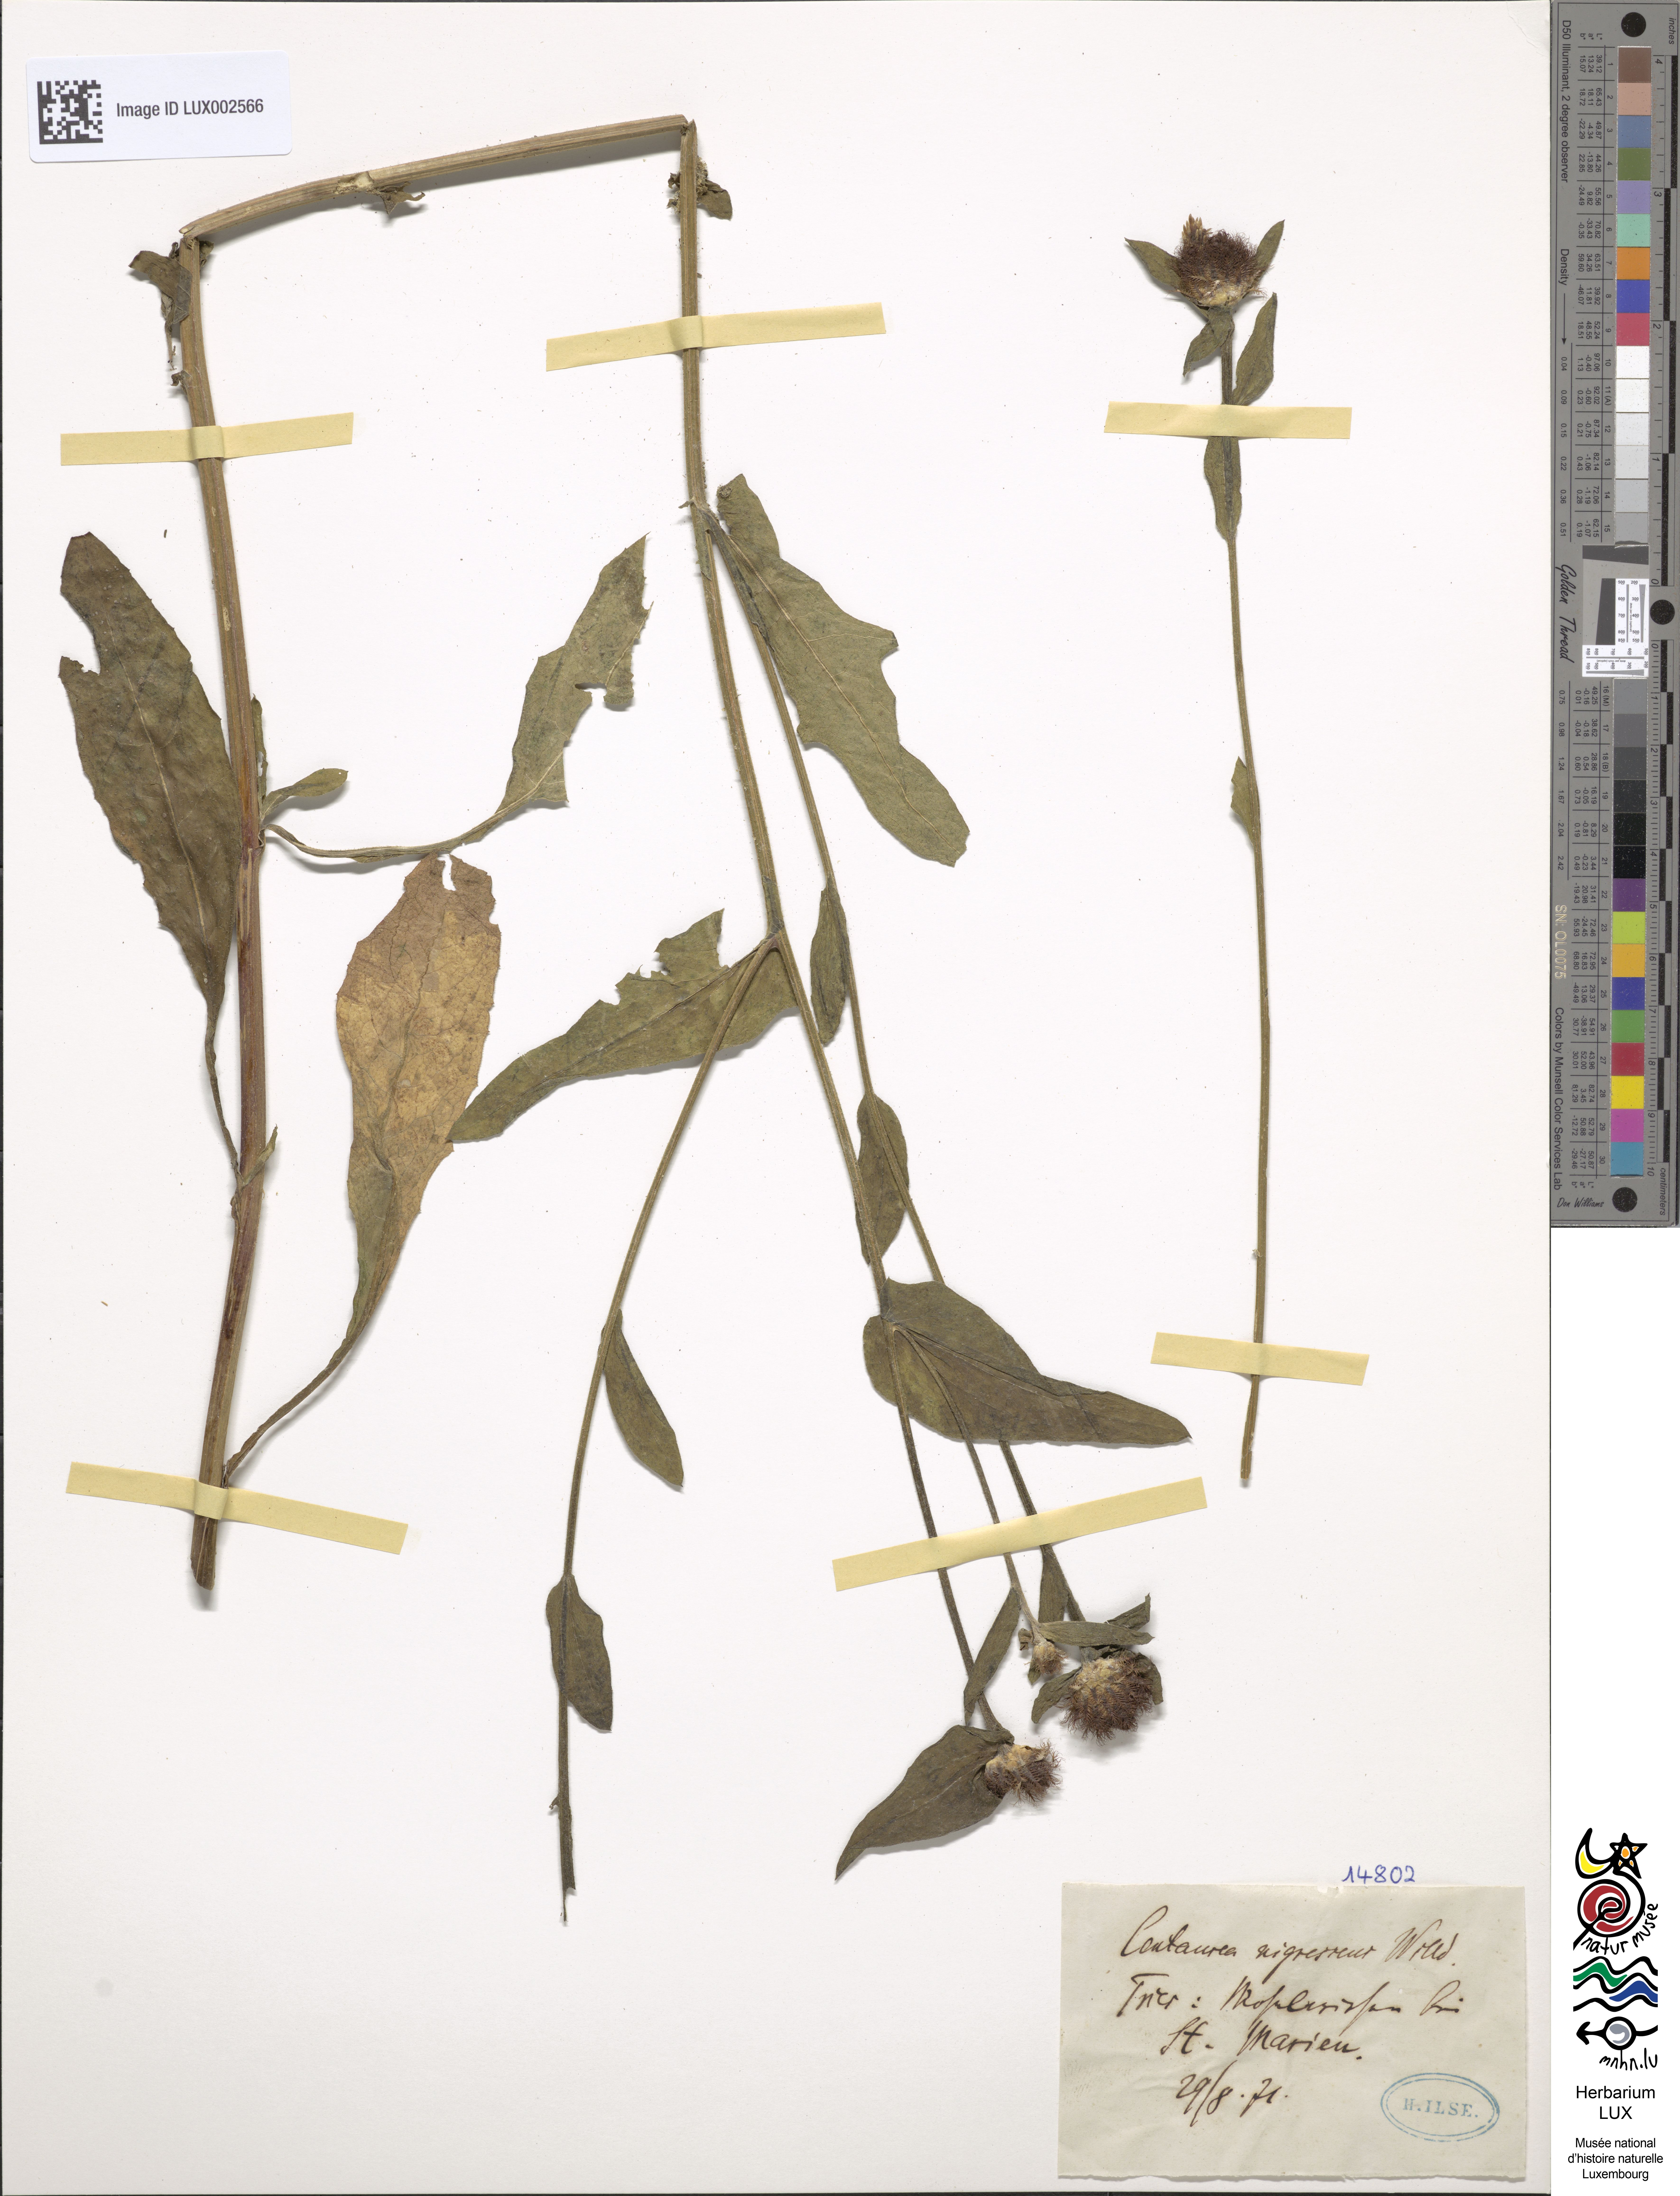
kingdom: Plantae
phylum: Tracheophyta
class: Magnoliopsida
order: Asterales
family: Asteraceae
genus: Centaurea
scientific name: Centaurea nigra
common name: Lesser knapweed
